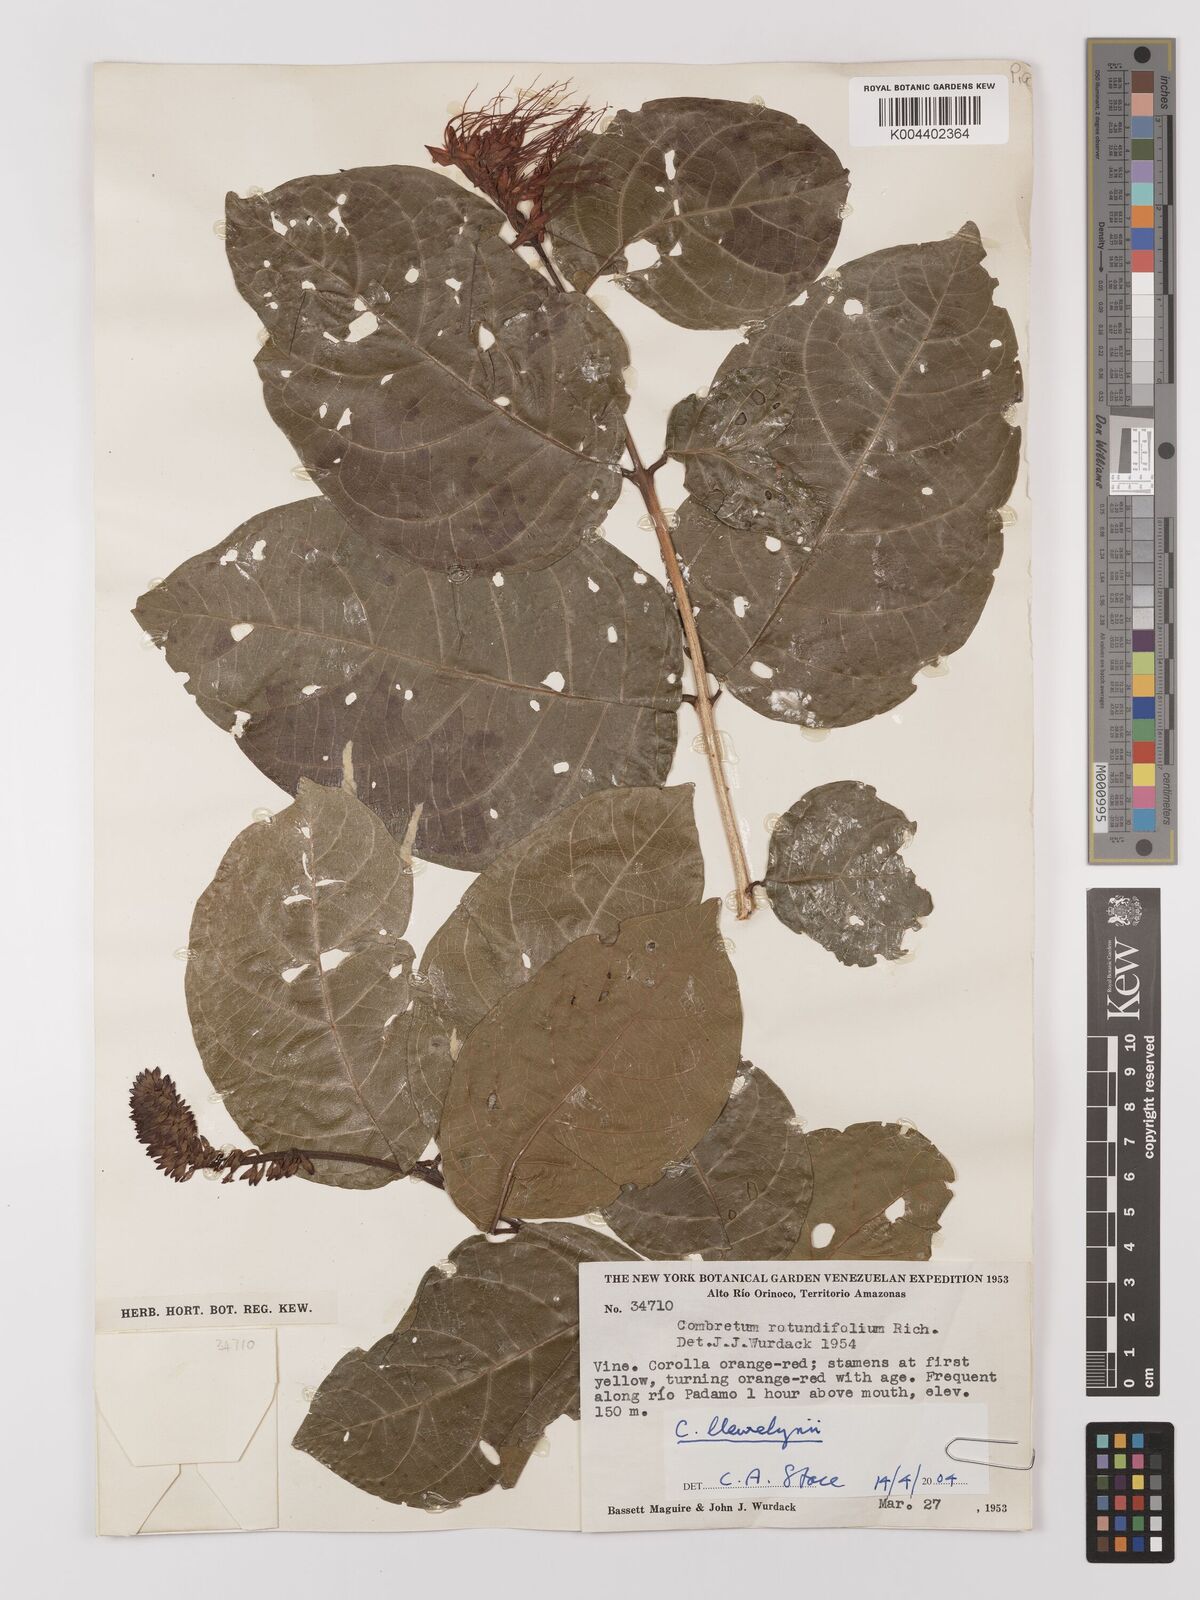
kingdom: Plantae
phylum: Tracheophyta
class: Magnoliopsida
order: Myrtales
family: Combretaceae
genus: Combretum
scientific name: Combretum llewelynii
